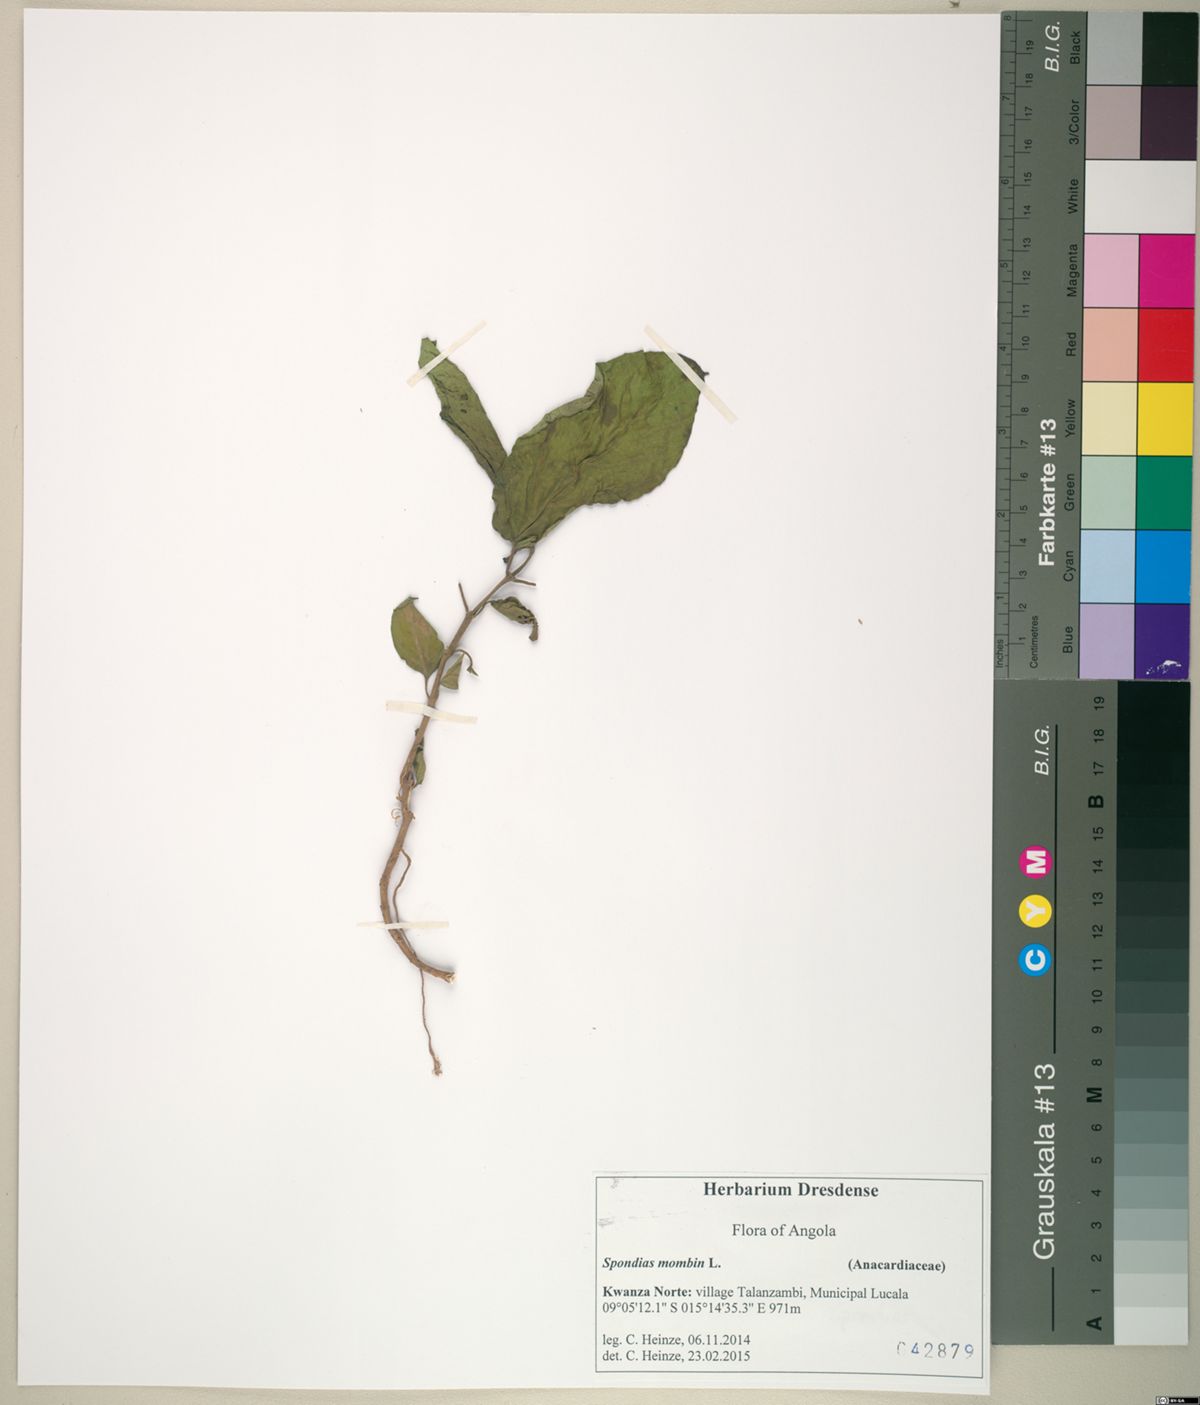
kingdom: Plantae
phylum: Tracheophyta
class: Magnoliopsida
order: Sapindales
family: Anacardiaceae
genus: Spondias
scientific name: Spondias mombin
